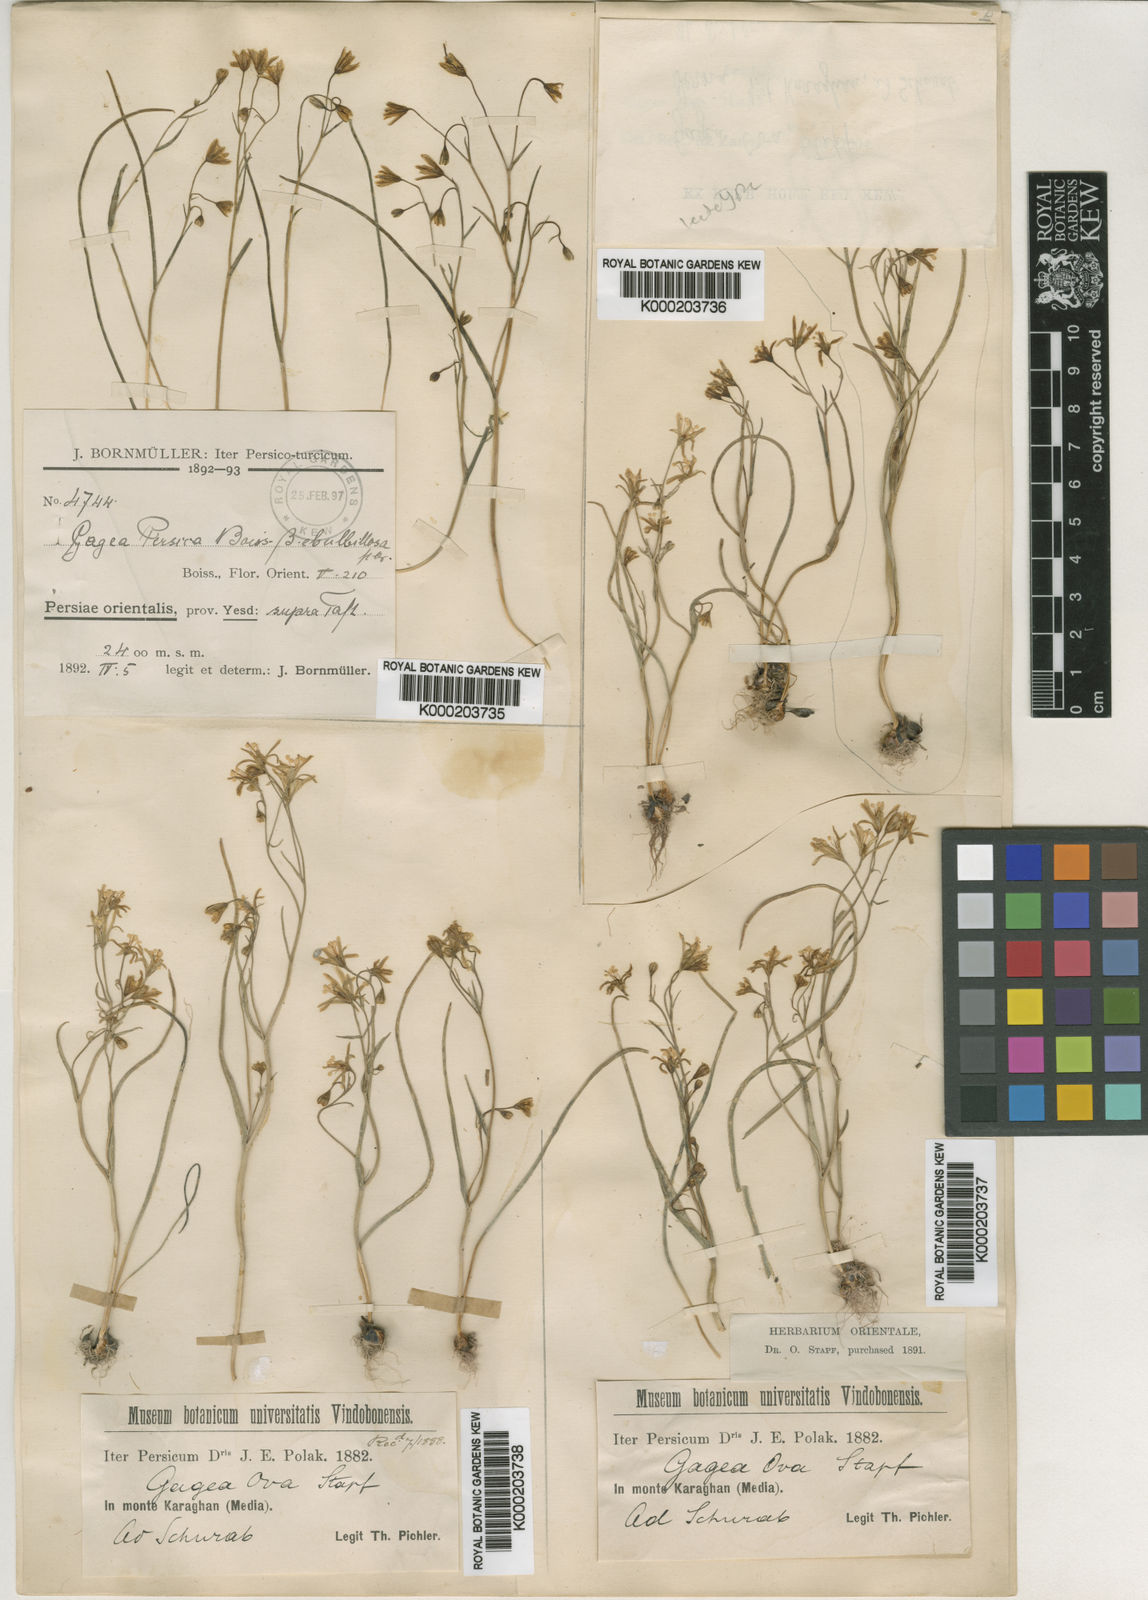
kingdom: Plantae
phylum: Tracheophyta
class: Liliopsida
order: Liliales
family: Liliaceae
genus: Gagea
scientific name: Gagea kunawurensis
